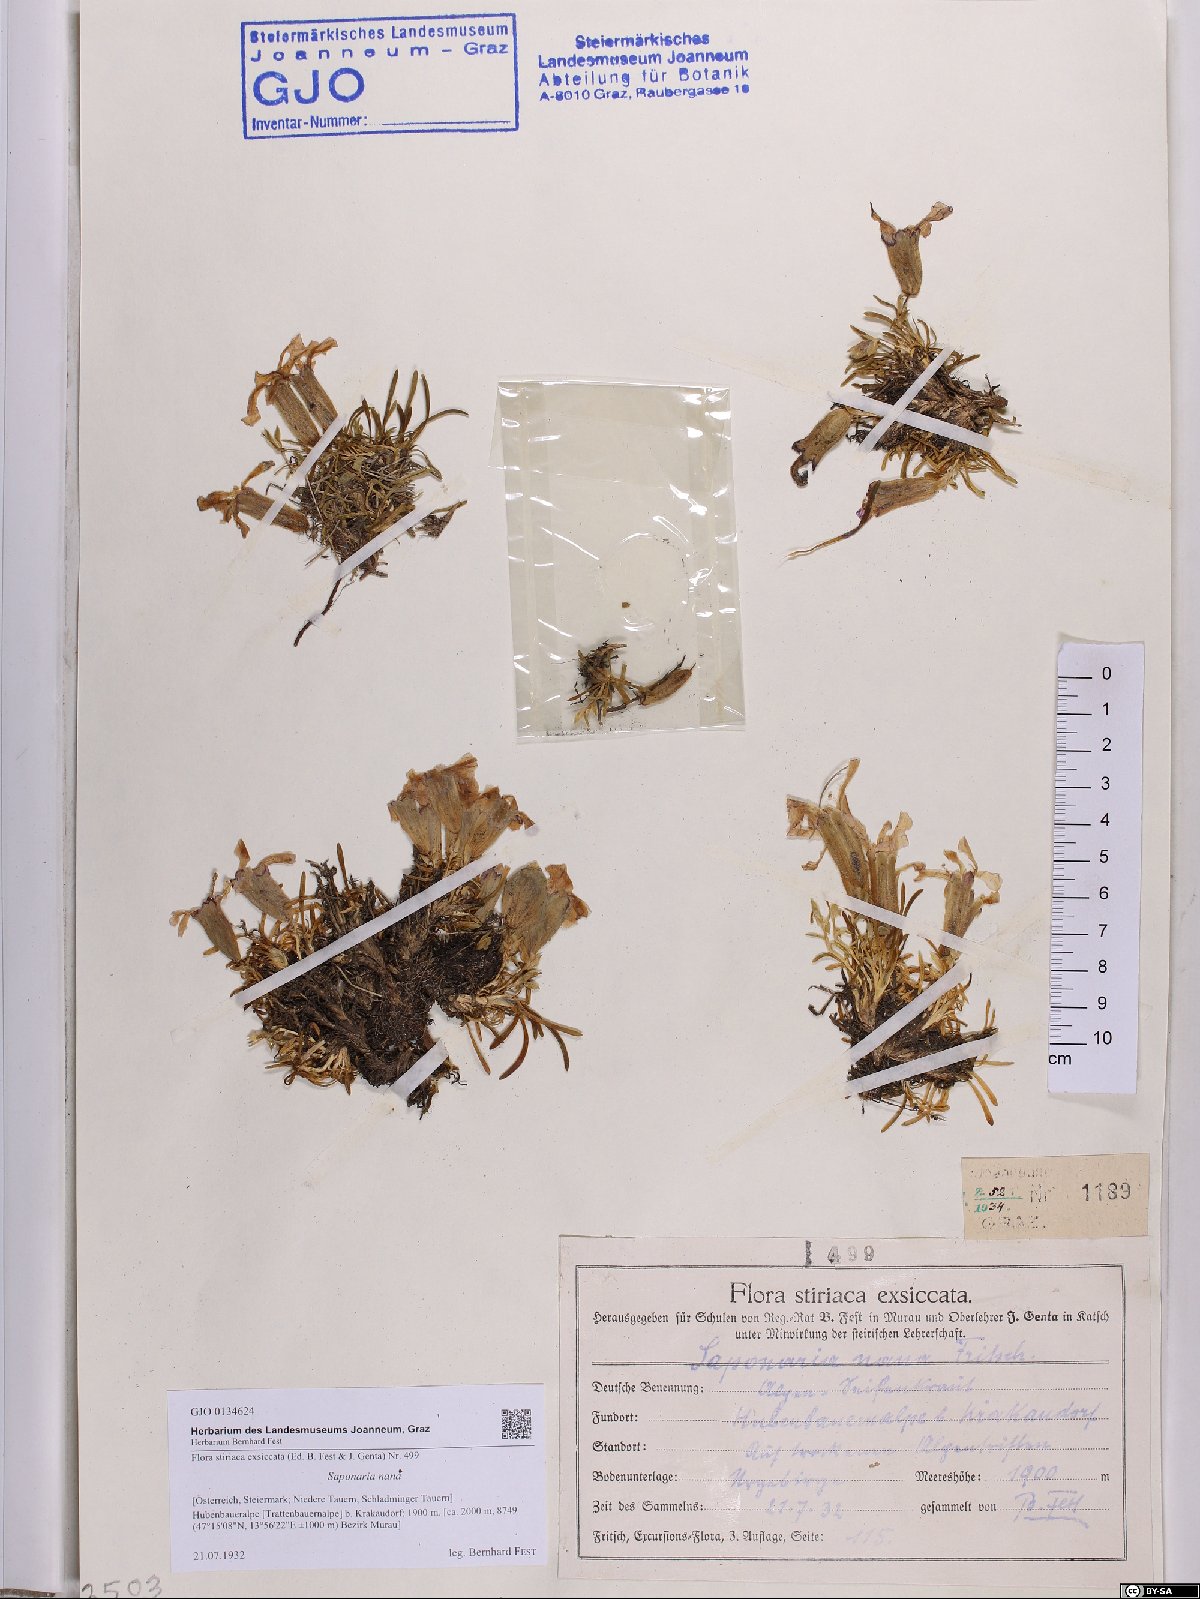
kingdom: Plantae
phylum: Tracheophyta
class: Magnoliopsida
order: Caryophyllales
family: Caryophyllaceae
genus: Saponaria
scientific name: Saponaria pumila
